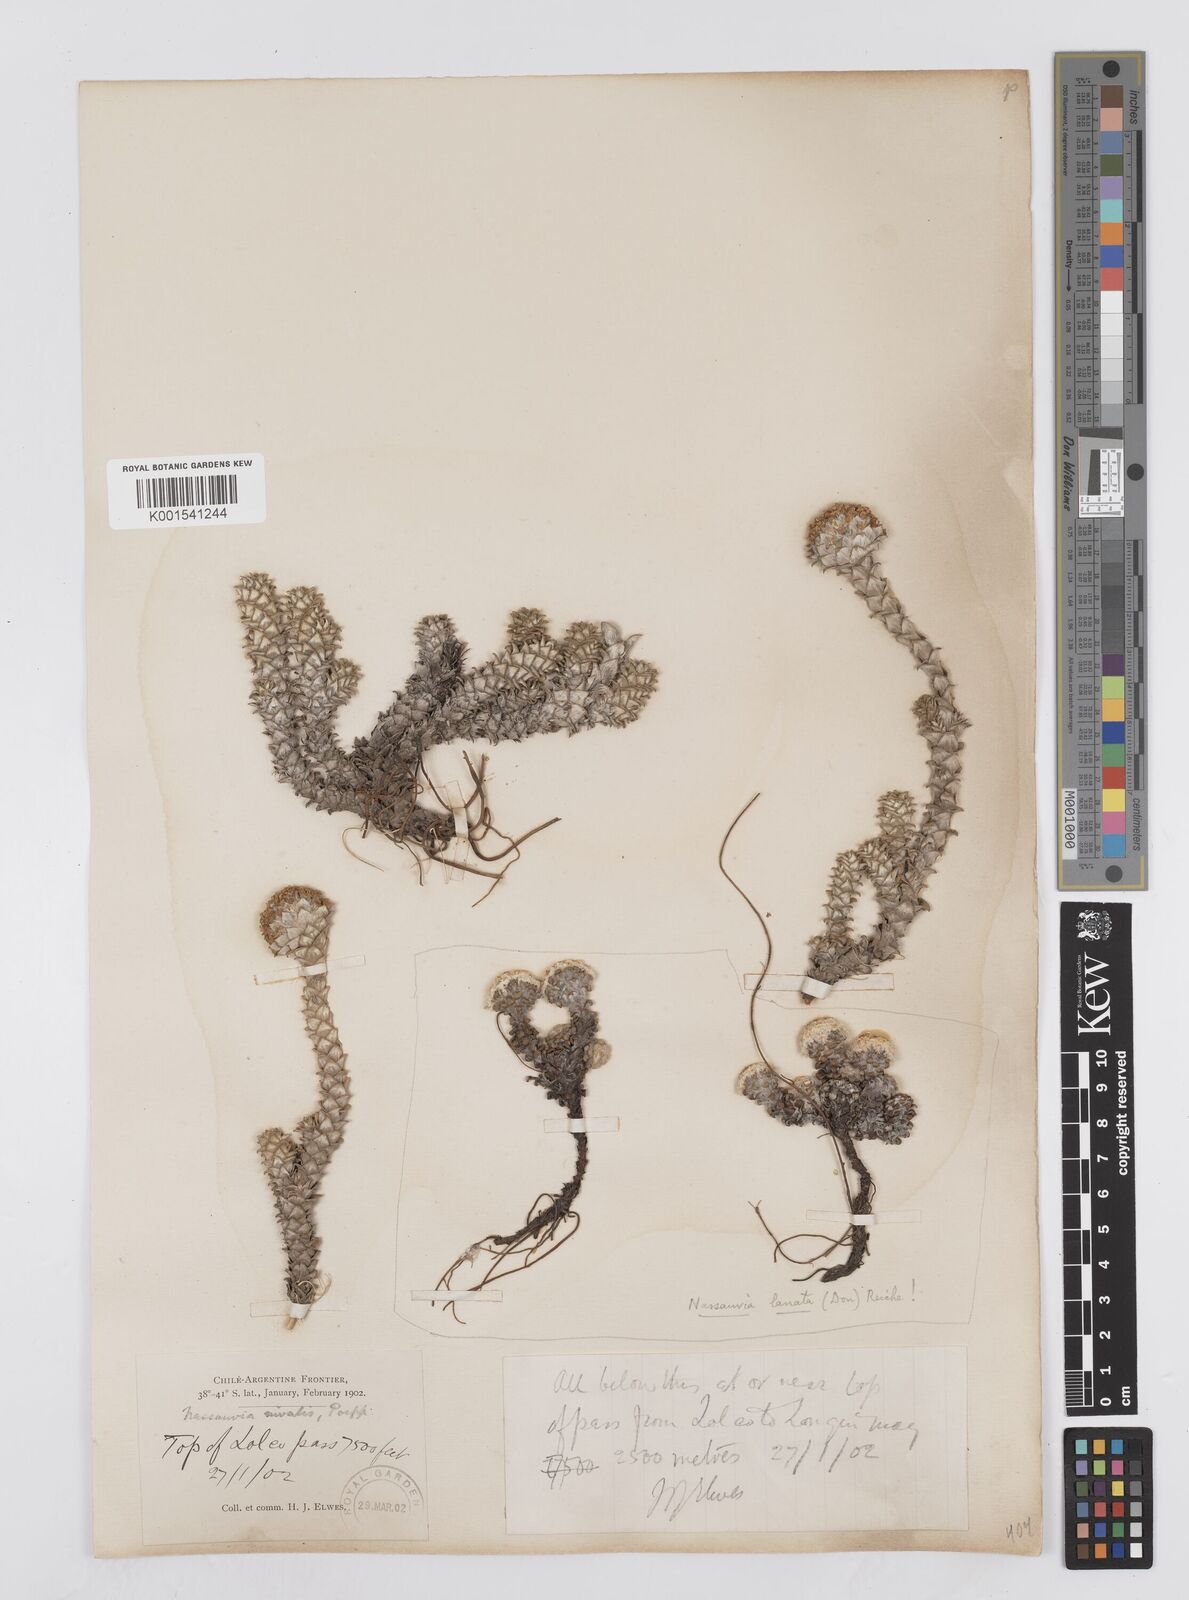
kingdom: Plantae
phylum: Tracheophyta
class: Magnoliopsida
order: Asterales
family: Asteraceae
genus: Nassauvia
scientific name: Nassauvia revoluta
